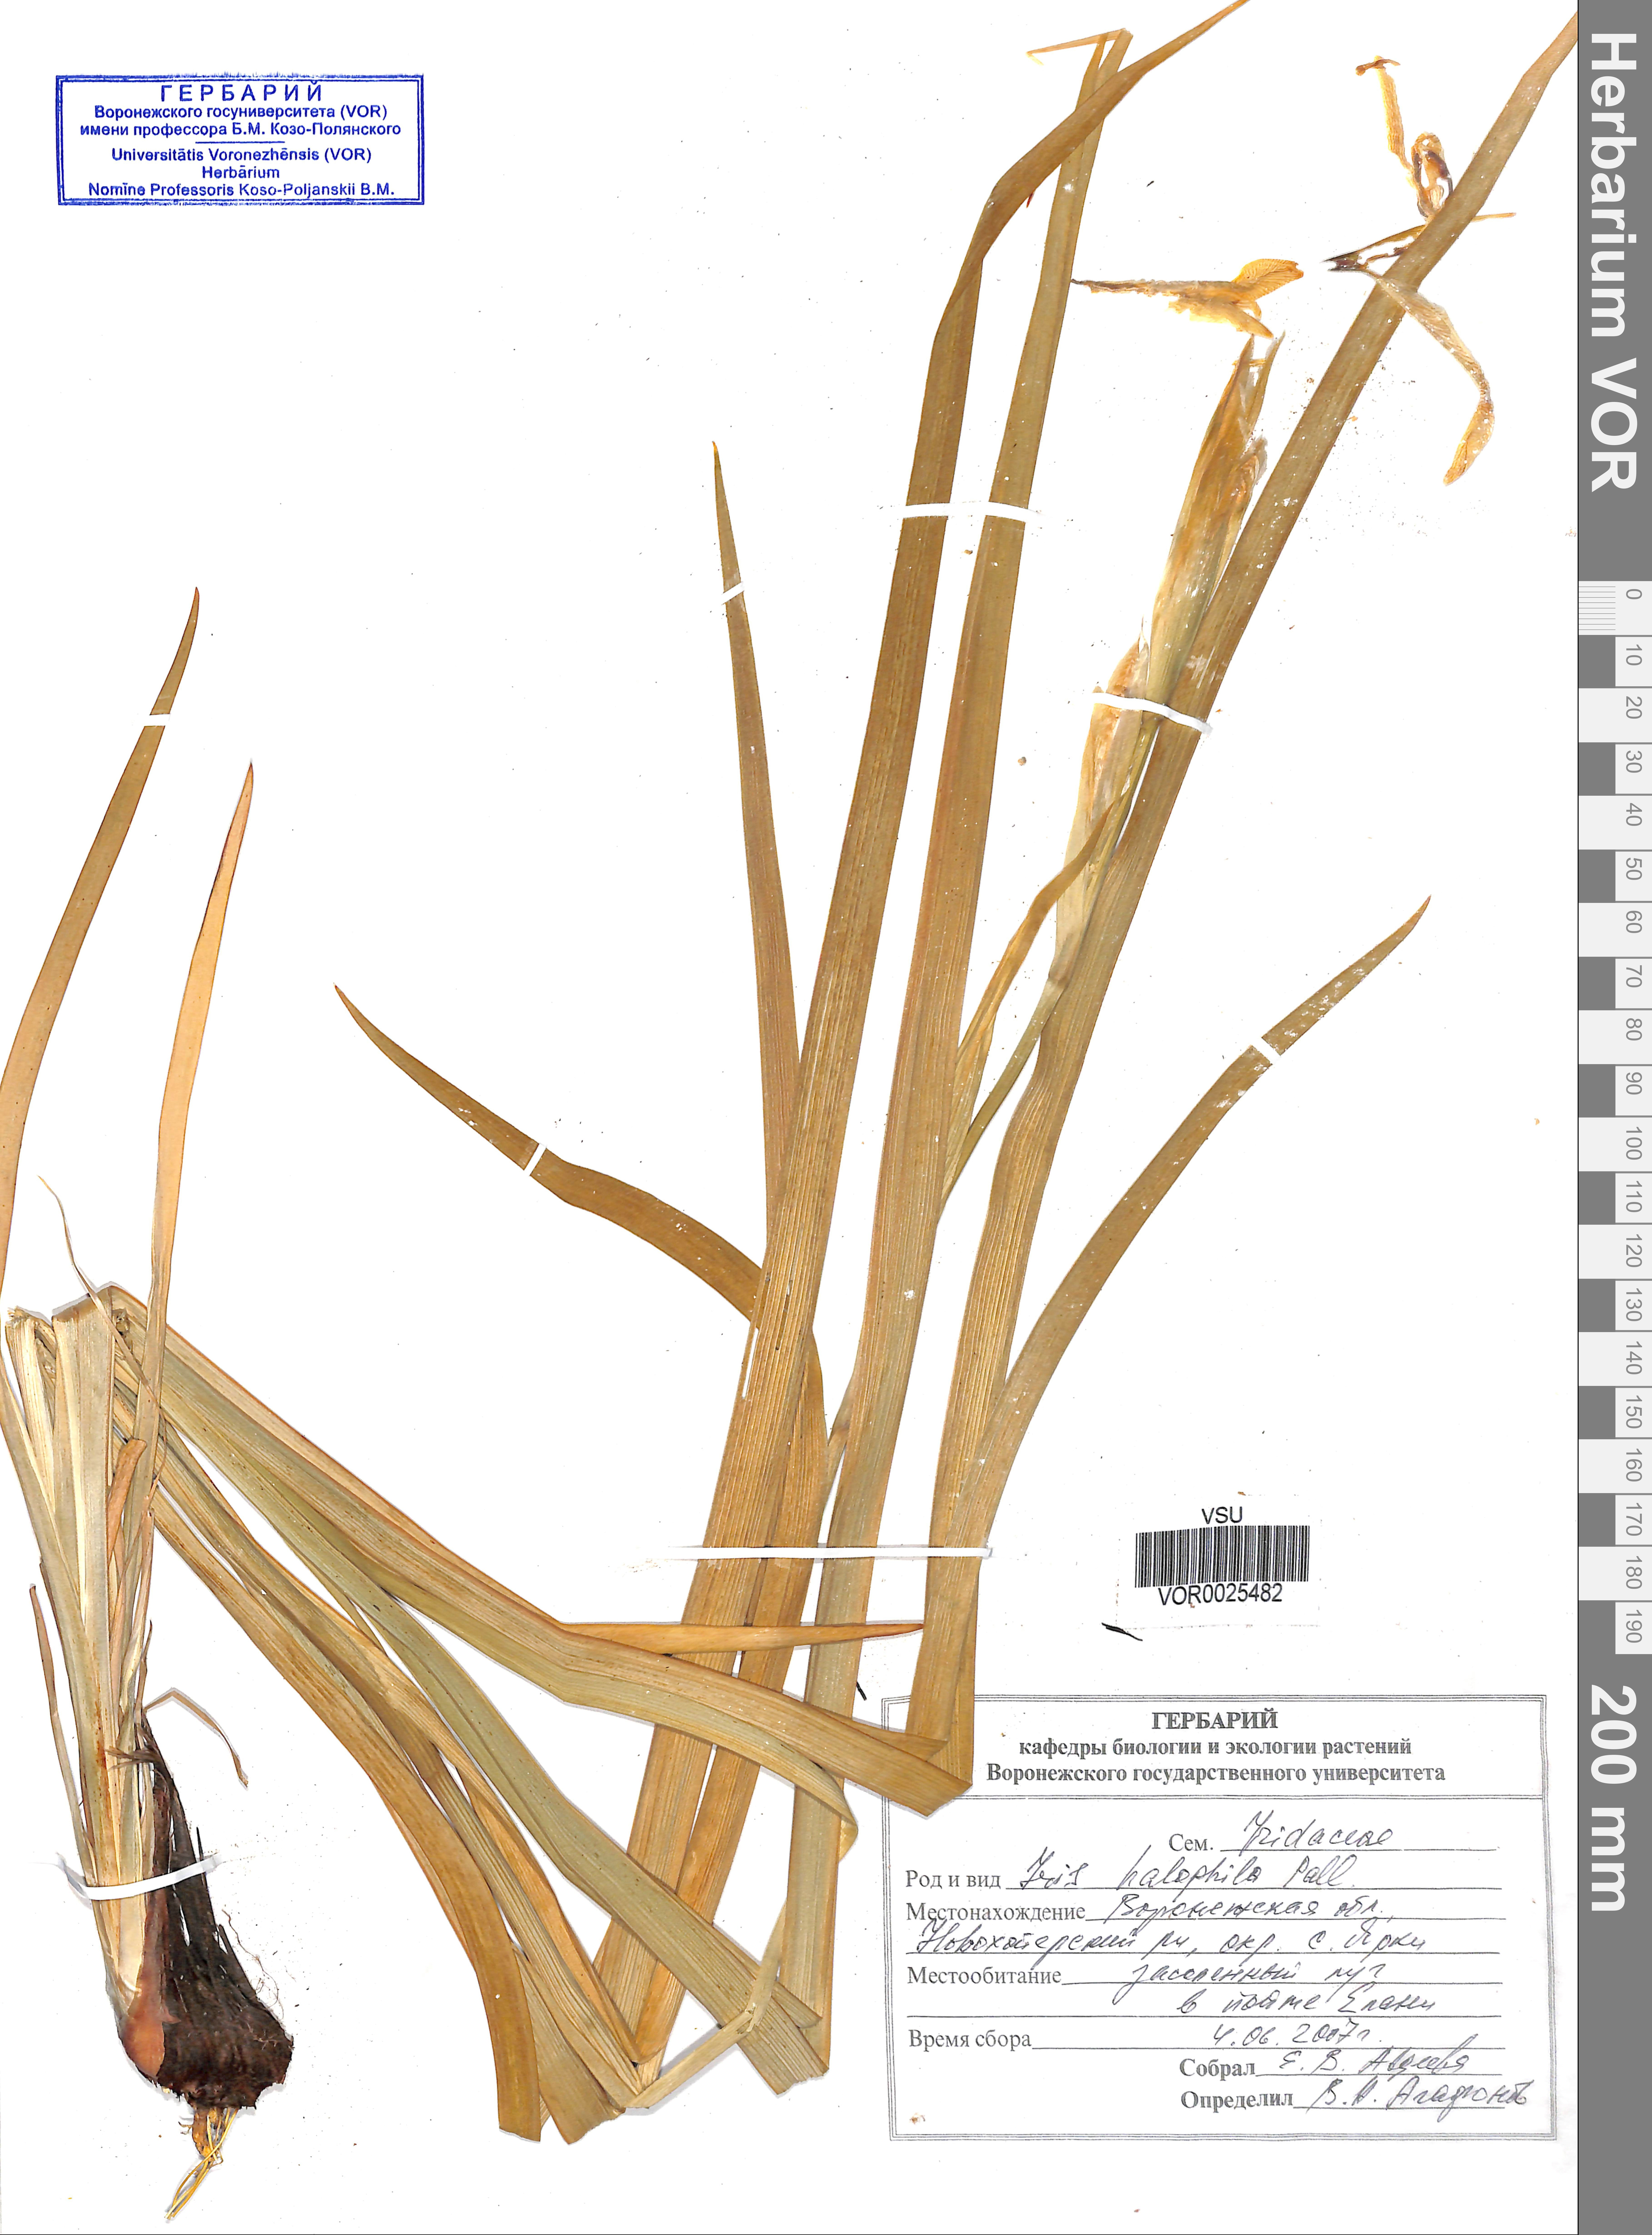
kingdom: Plantae
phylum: Tracheophyta
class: Liliopsida
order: Asparagales
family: Iridaceae
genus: Iris
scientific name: Iris halophila
